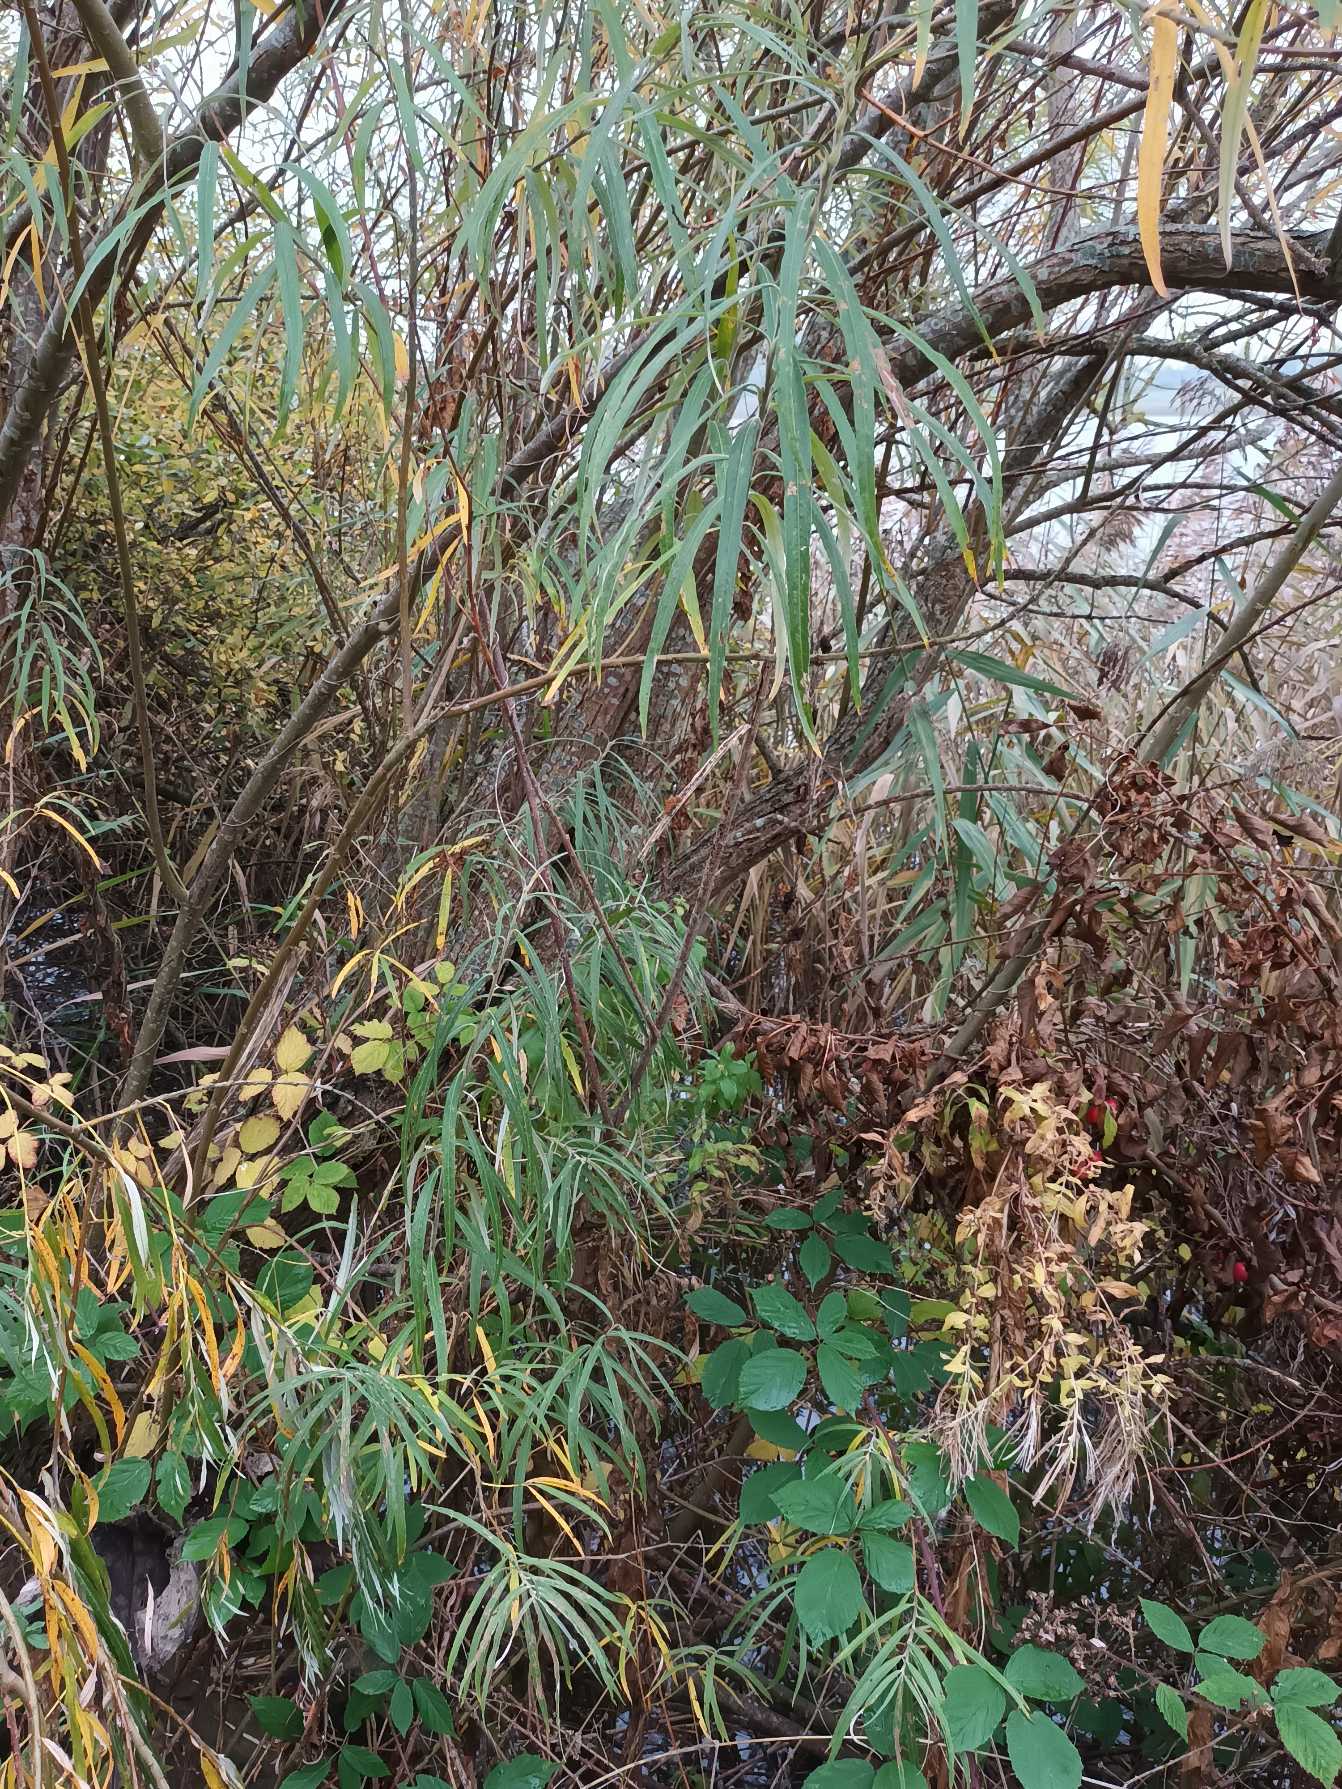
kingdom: Plantae
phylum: Tracheophyta
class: Magnoliopsida
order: Malpighiales
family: Salicaceae
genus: Salix
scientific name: Salix viminalis
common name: Bånd-pil
